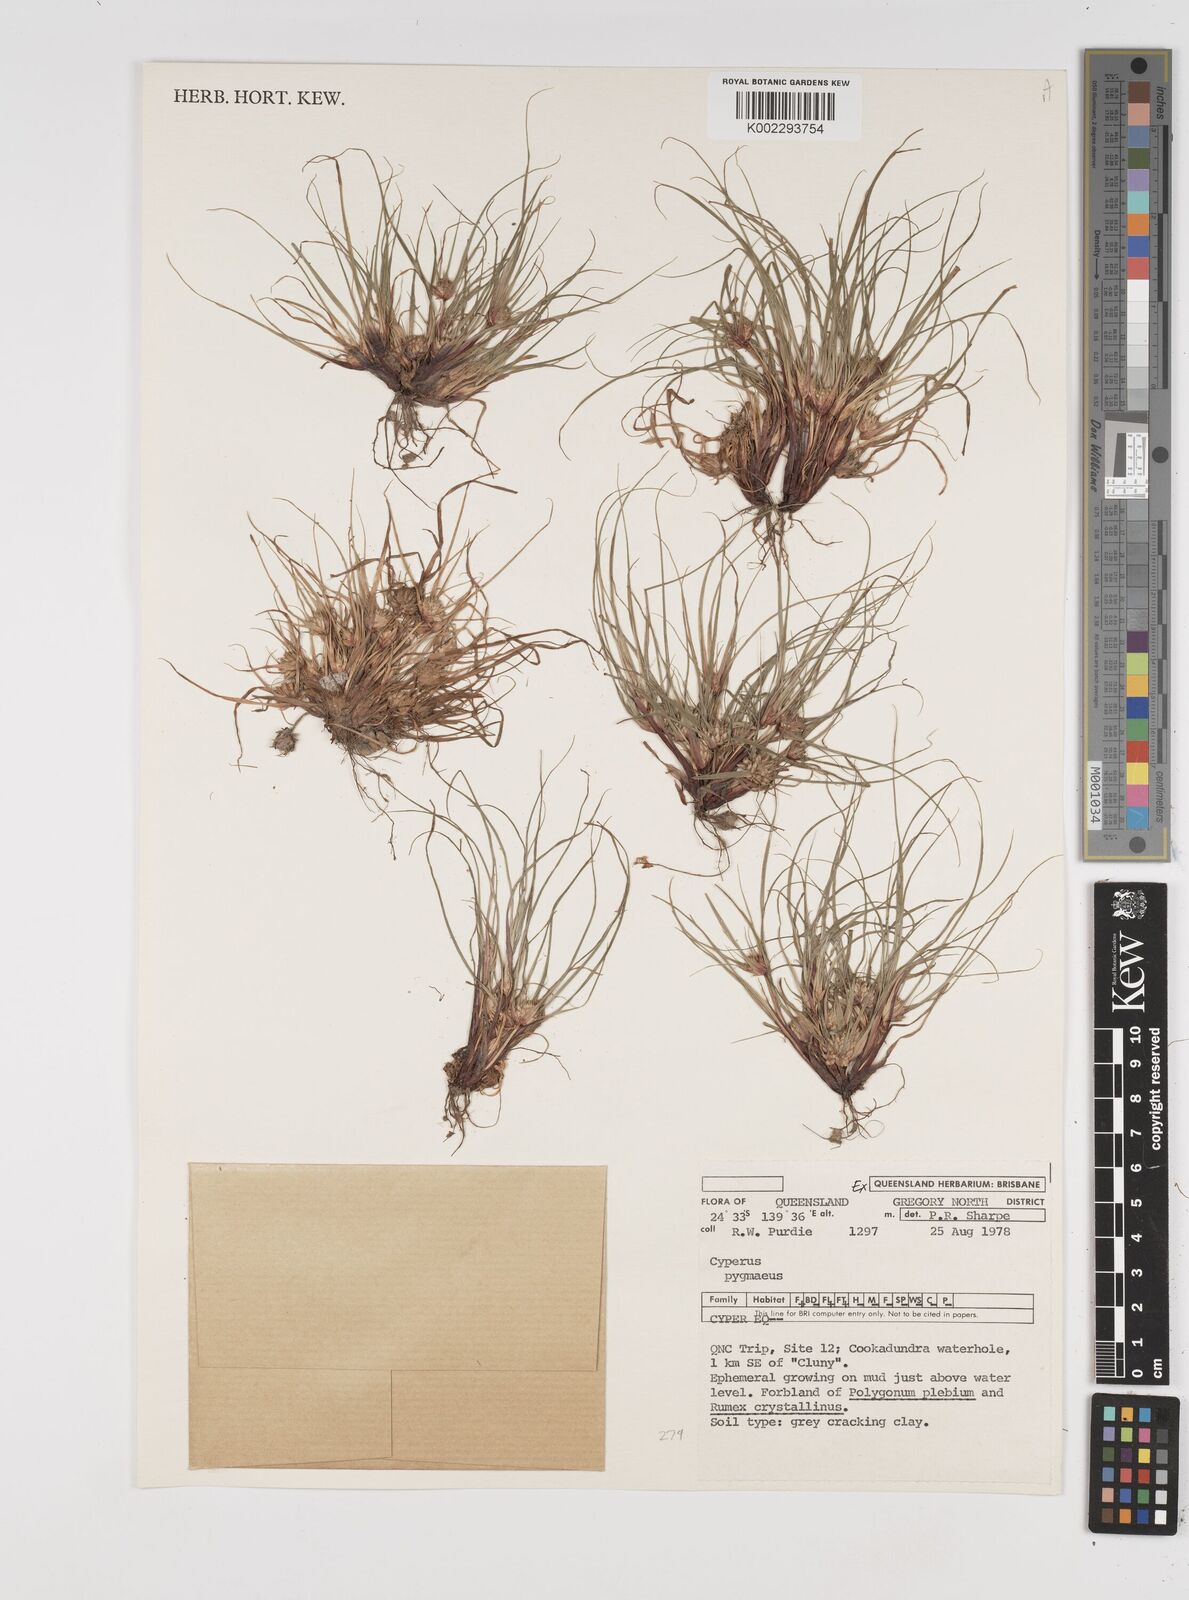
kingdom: Plantae
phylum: Tracheophyta
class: Liliopsida
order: Poales
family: Cyperaceae
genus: Cyperus
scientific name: Cyperus michelianus
